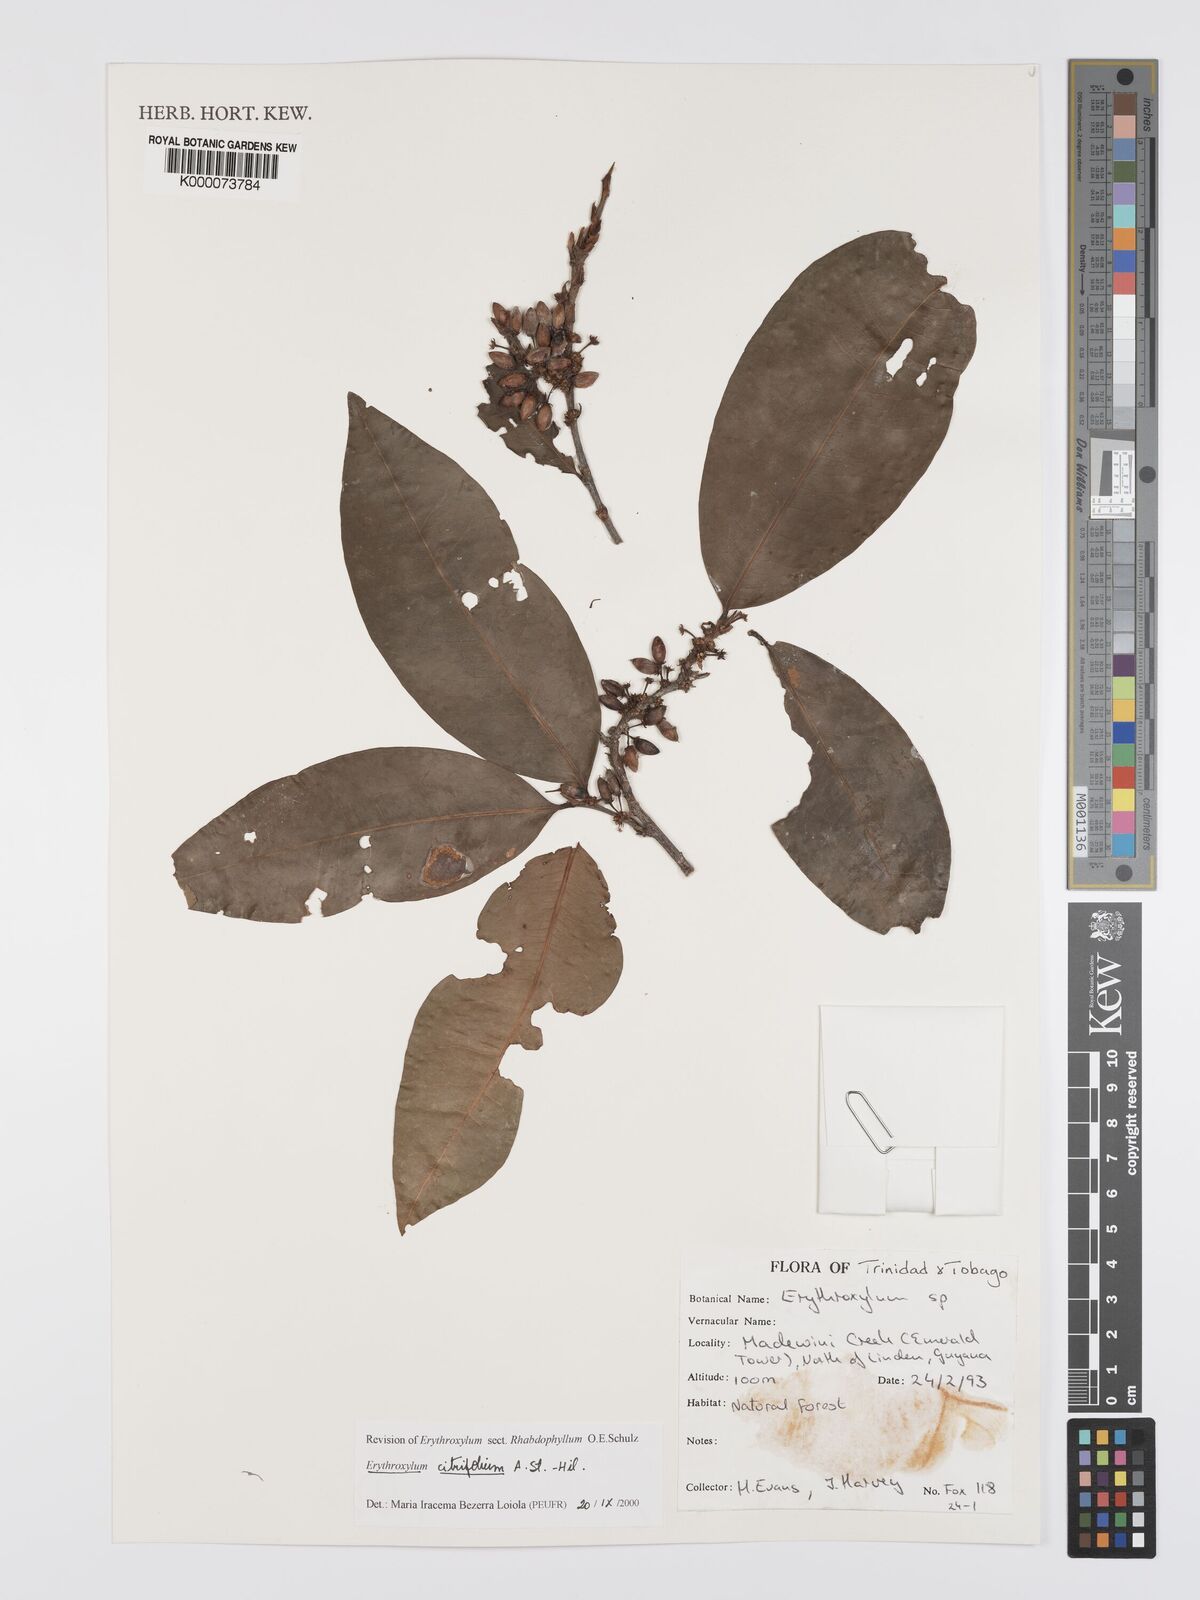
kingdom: Plantae
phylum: Tracheophyta
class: Magnoliopsida
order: Malpighiales
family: Erythroxylaceae
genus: Erythroxylum
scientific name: Erythroxylum citrifolium
